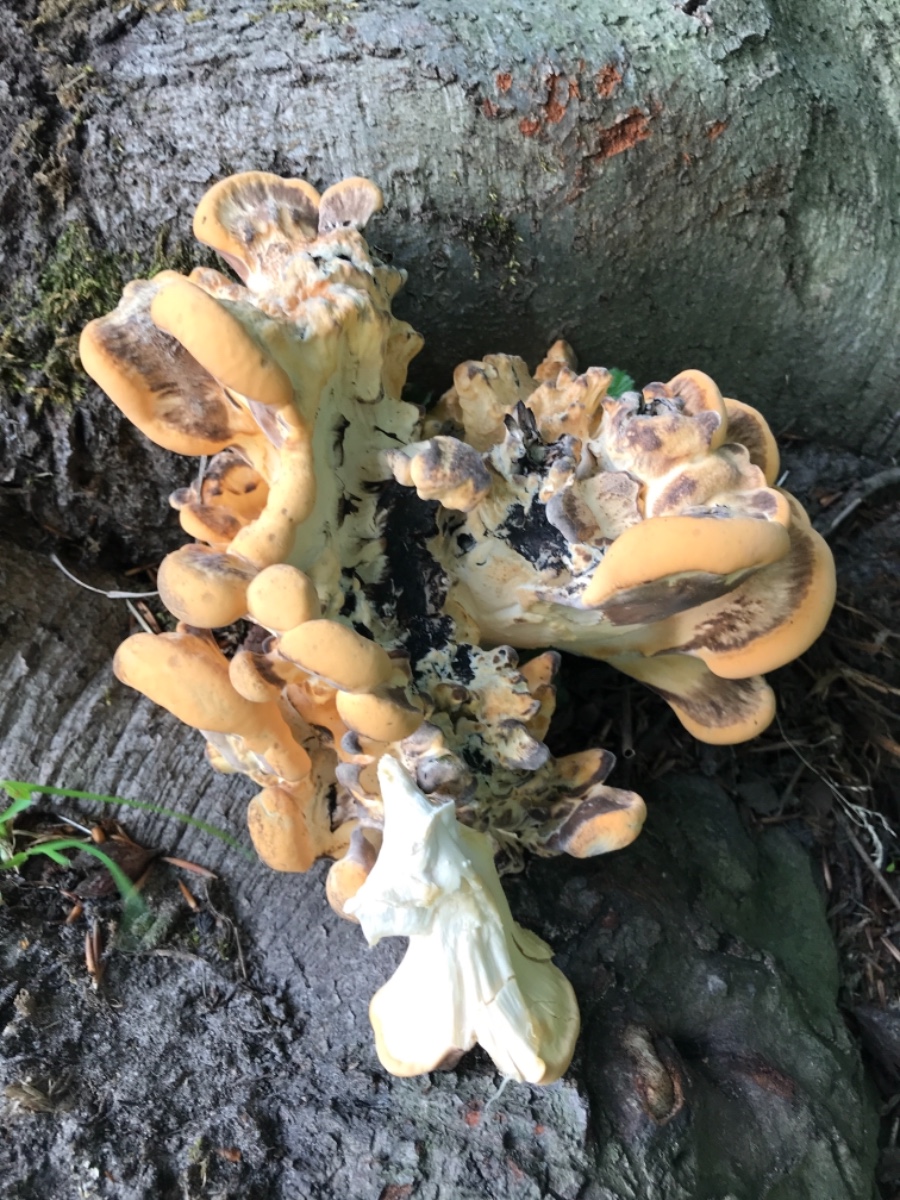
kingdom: Fungi
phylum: Basidiomycota
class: Agaricomycetes
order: Polyporales
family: Meripilaceae
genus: Meripilus
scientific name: Meripilus giganteus
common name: kæmpeporesvamp
